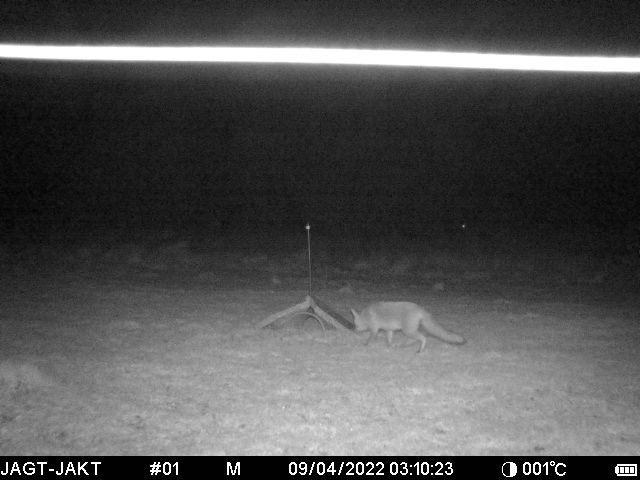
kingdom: Animalia
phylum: Chordata
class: Mammalia
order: Carnivora
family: Canidae
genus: Vulpes
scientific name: Vulpes vulpes
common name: Ræv
